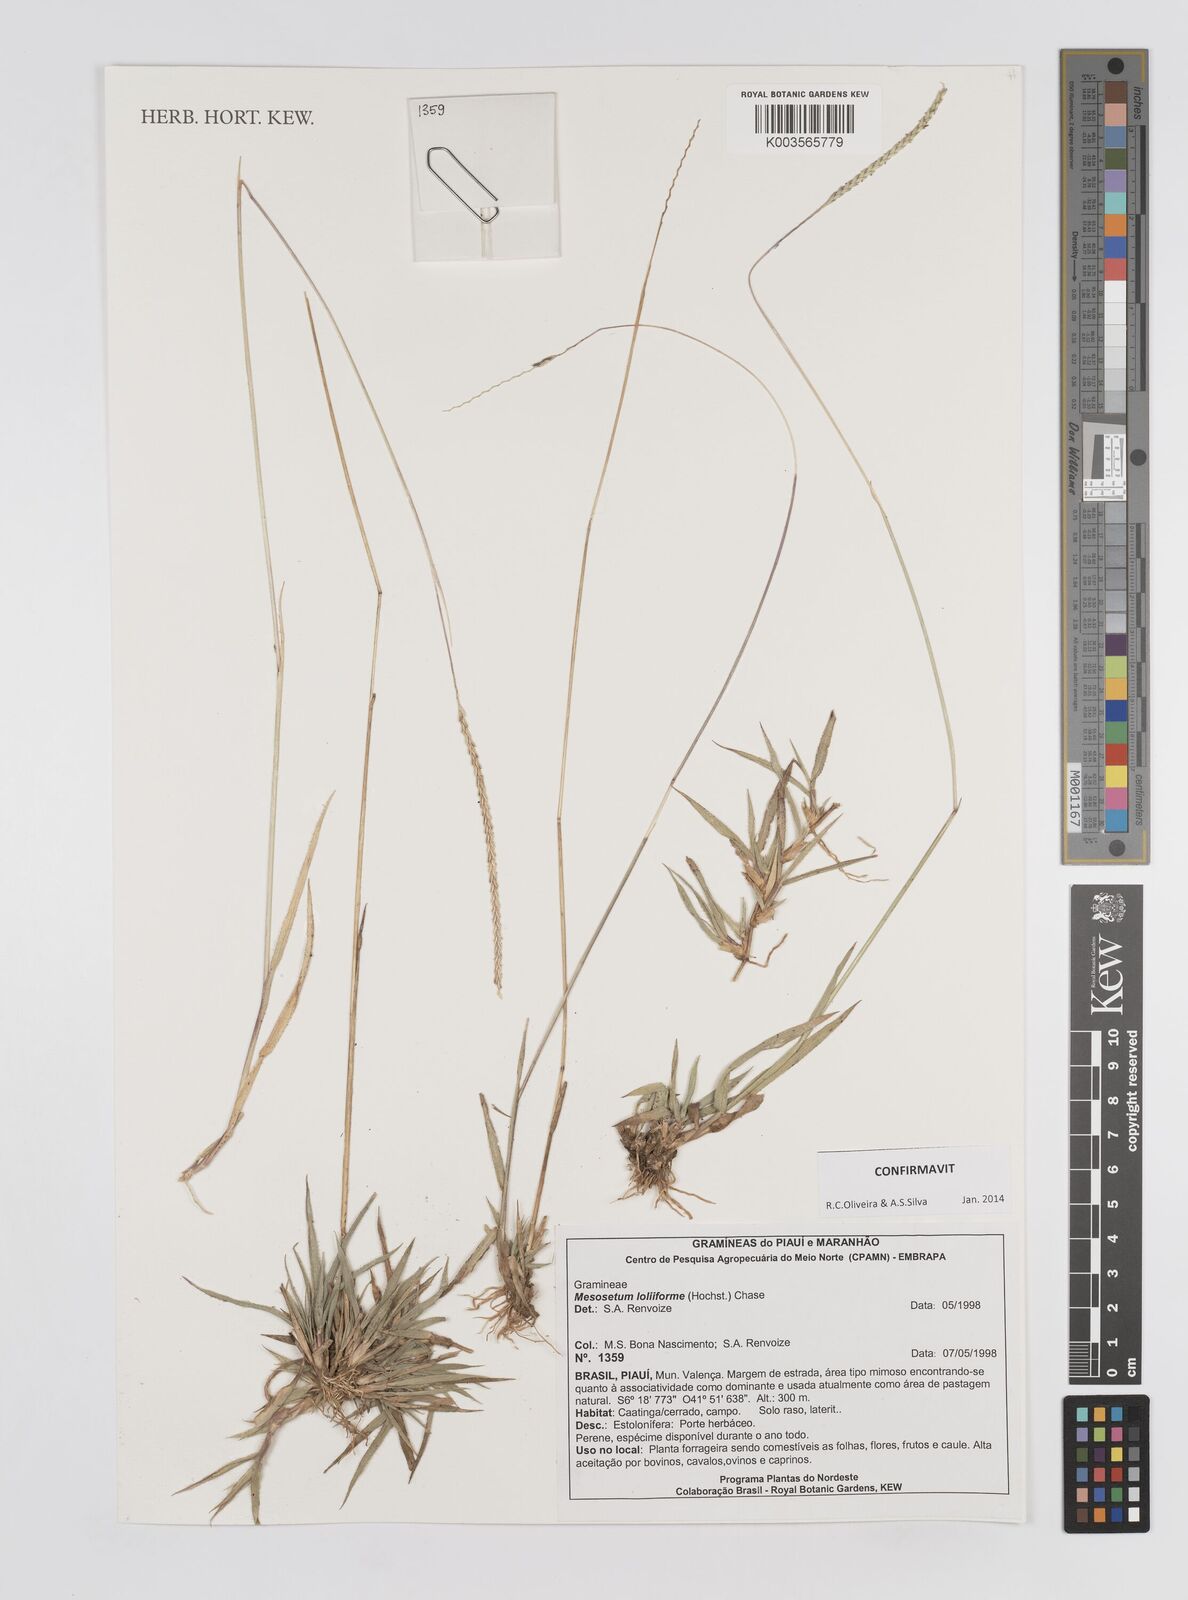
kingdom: Plantae
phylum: Tracheophyta
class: Liliopsida
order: Poales
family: Poaceae
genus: Mesosetum
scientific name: Mesosetum loliiforme
